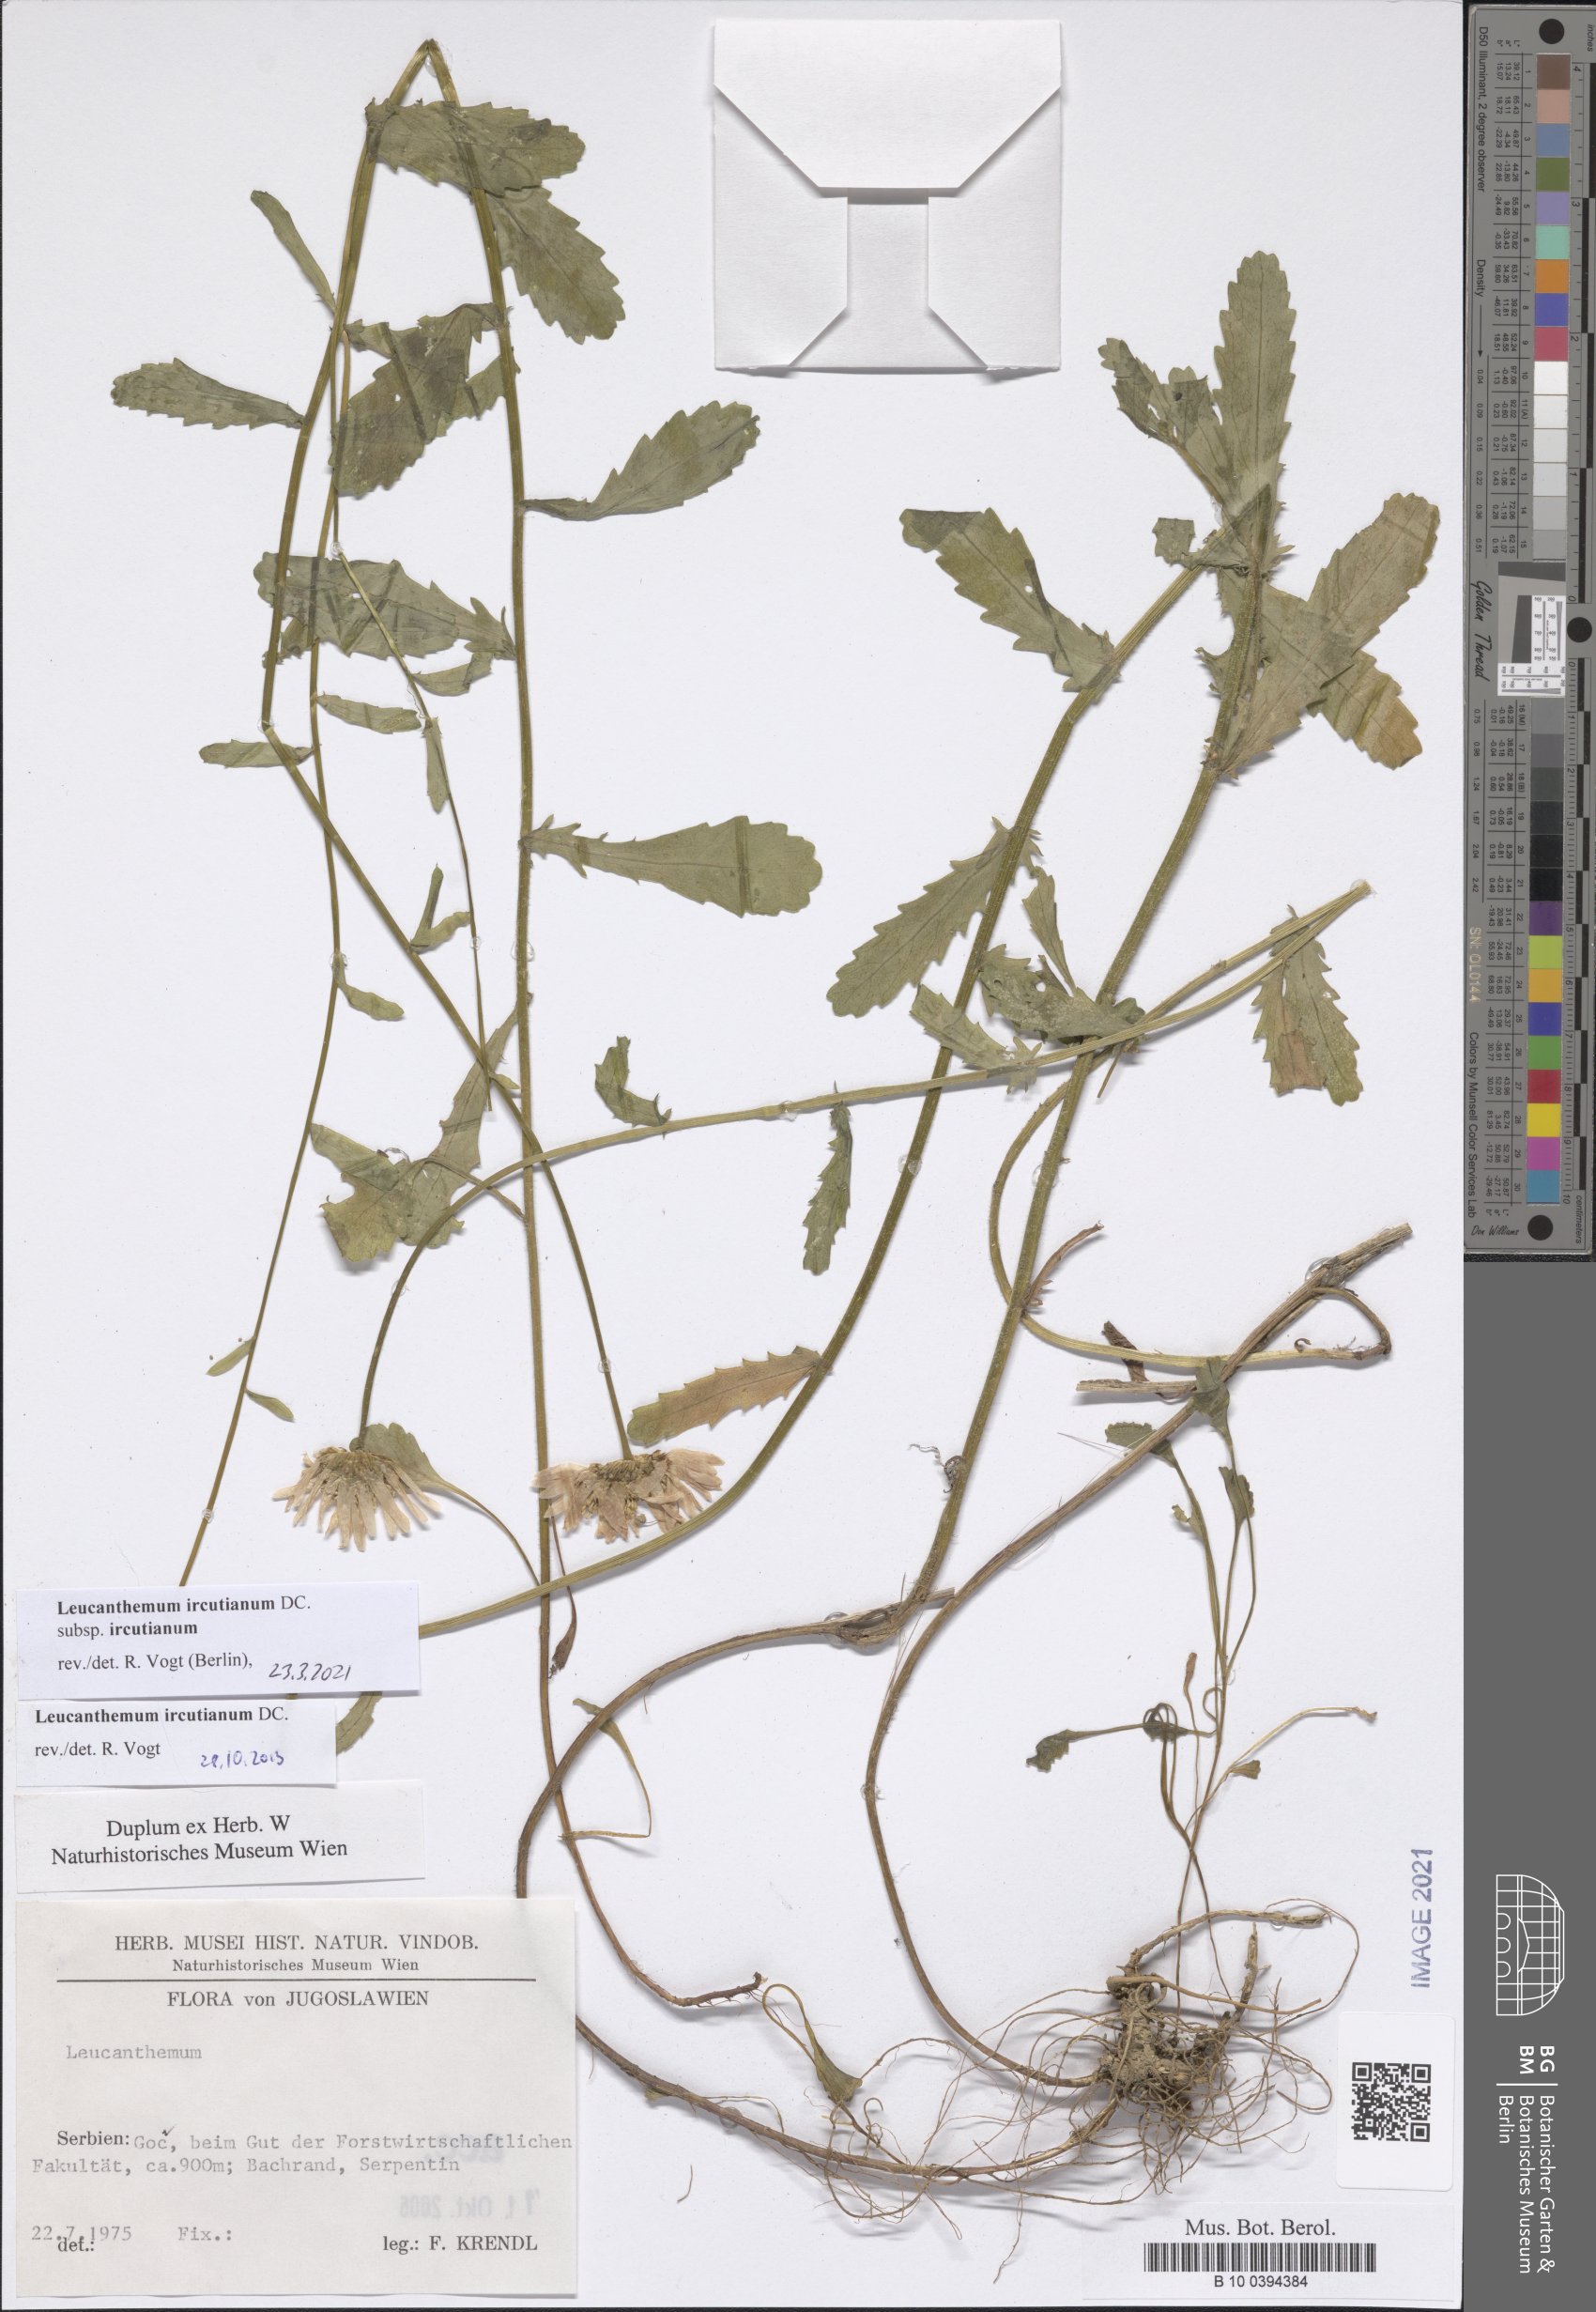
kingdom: Plantae
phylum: Tracheophyta
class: Magnoliopsida
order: Asterales
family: Asteraceae
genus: Leucanthemum
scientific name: Leucanthemum ircutianum
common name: Daisy
